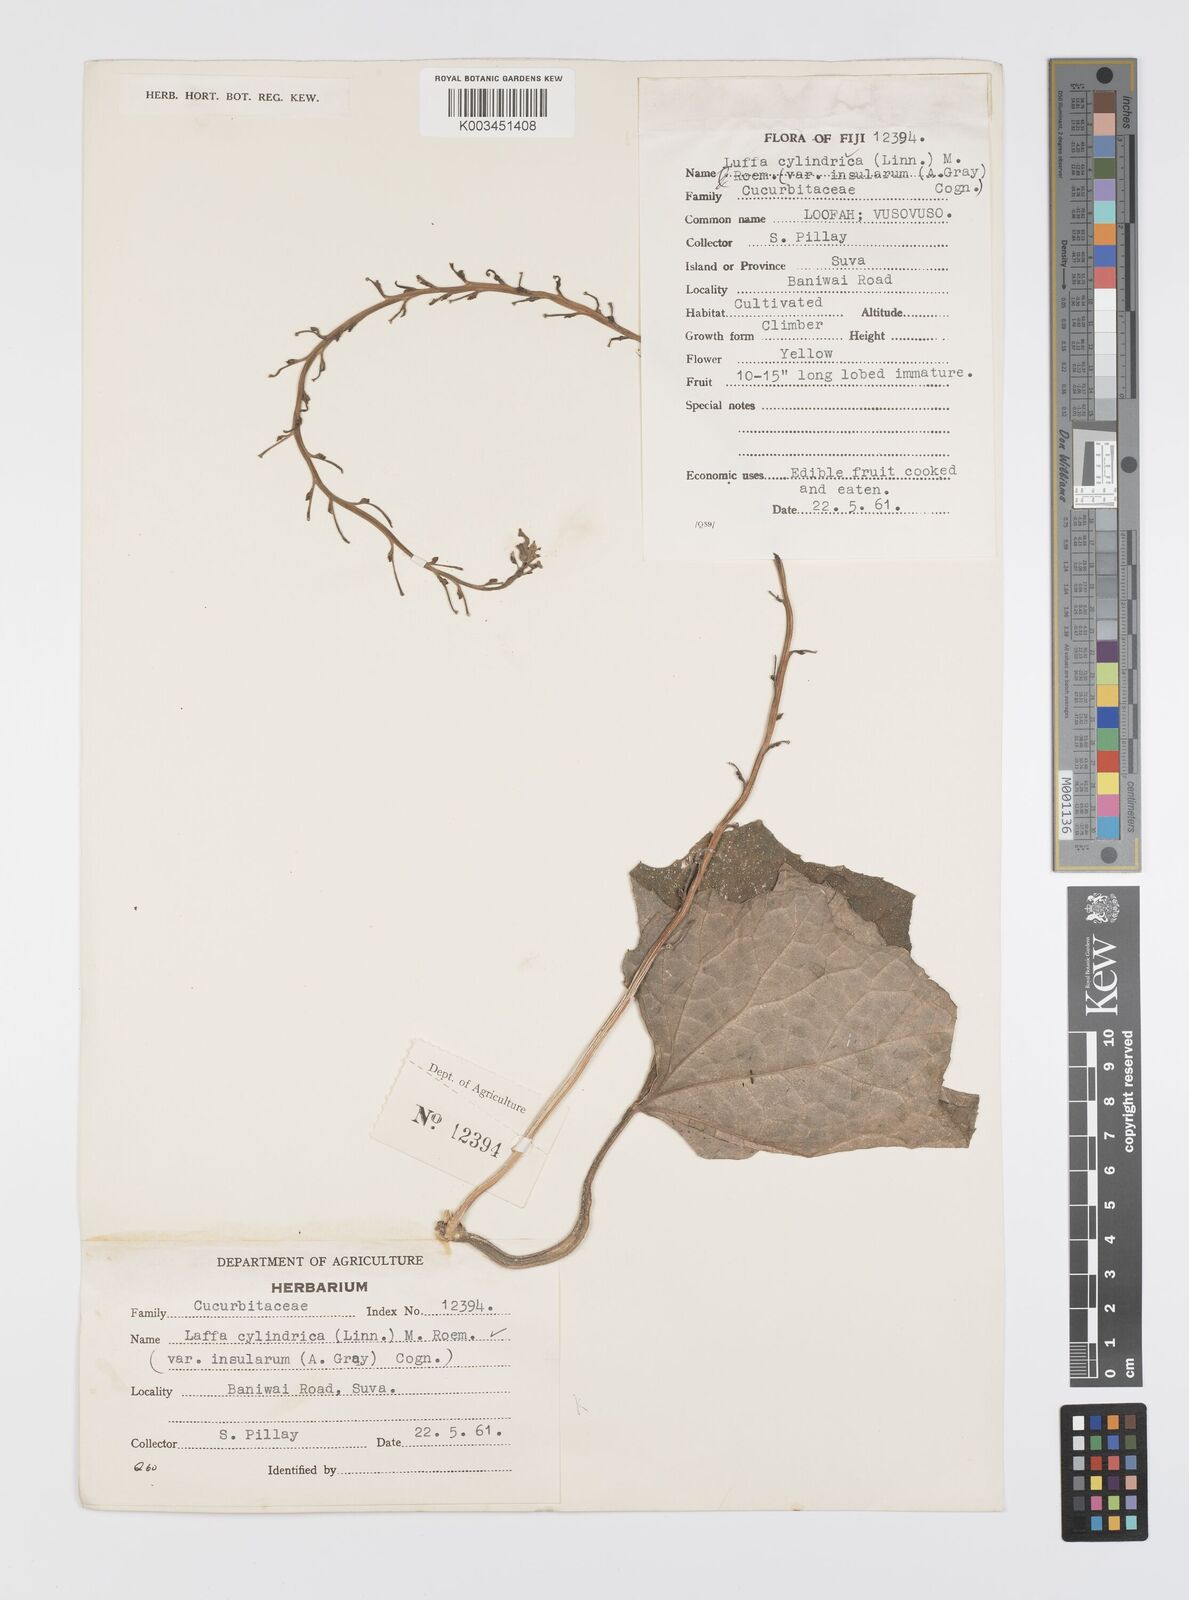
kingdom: Plantae
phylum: Tracheophyta
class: Magnoliopsida
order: Cucurbitales
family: Cucurbitaceae
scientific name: Cucurbitaceae
